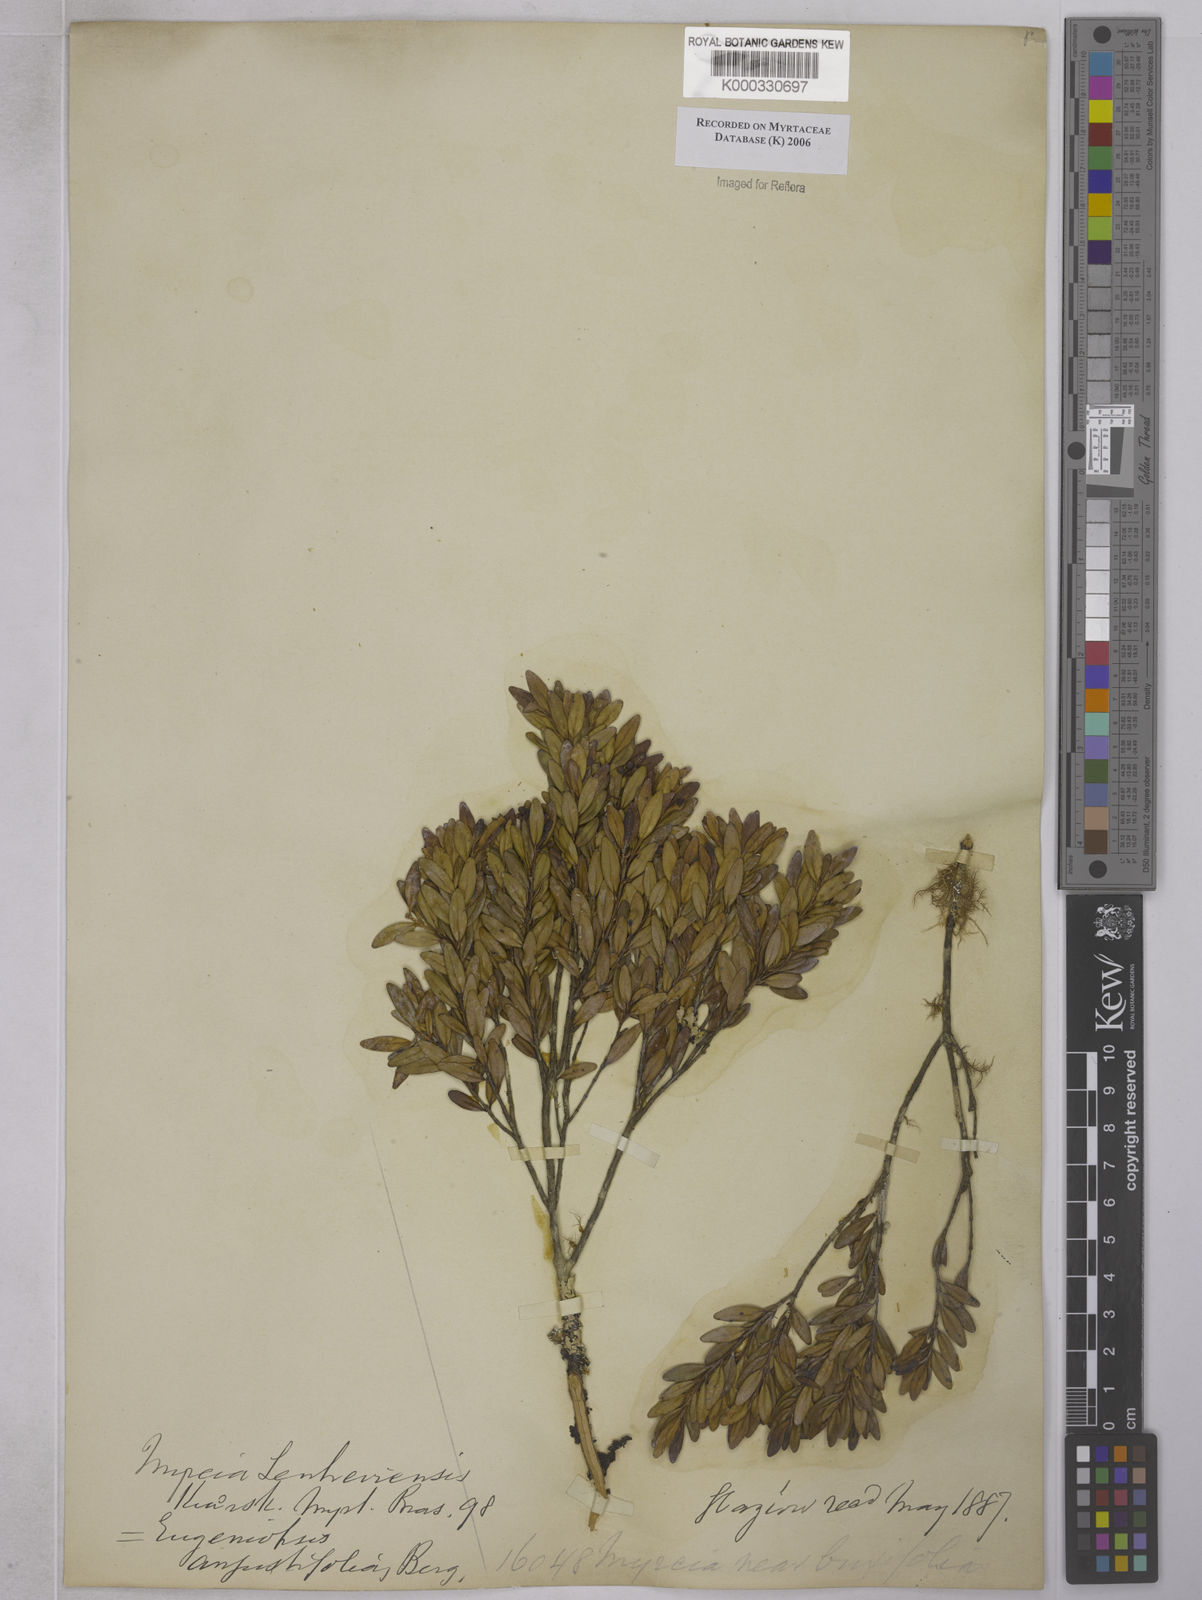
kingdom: Plantae
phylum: Tracheophyta
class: Magnoliopsida
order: Myrtales
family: Myrtaceae
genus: Myrcia
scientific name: Myrcia lenheirensis
